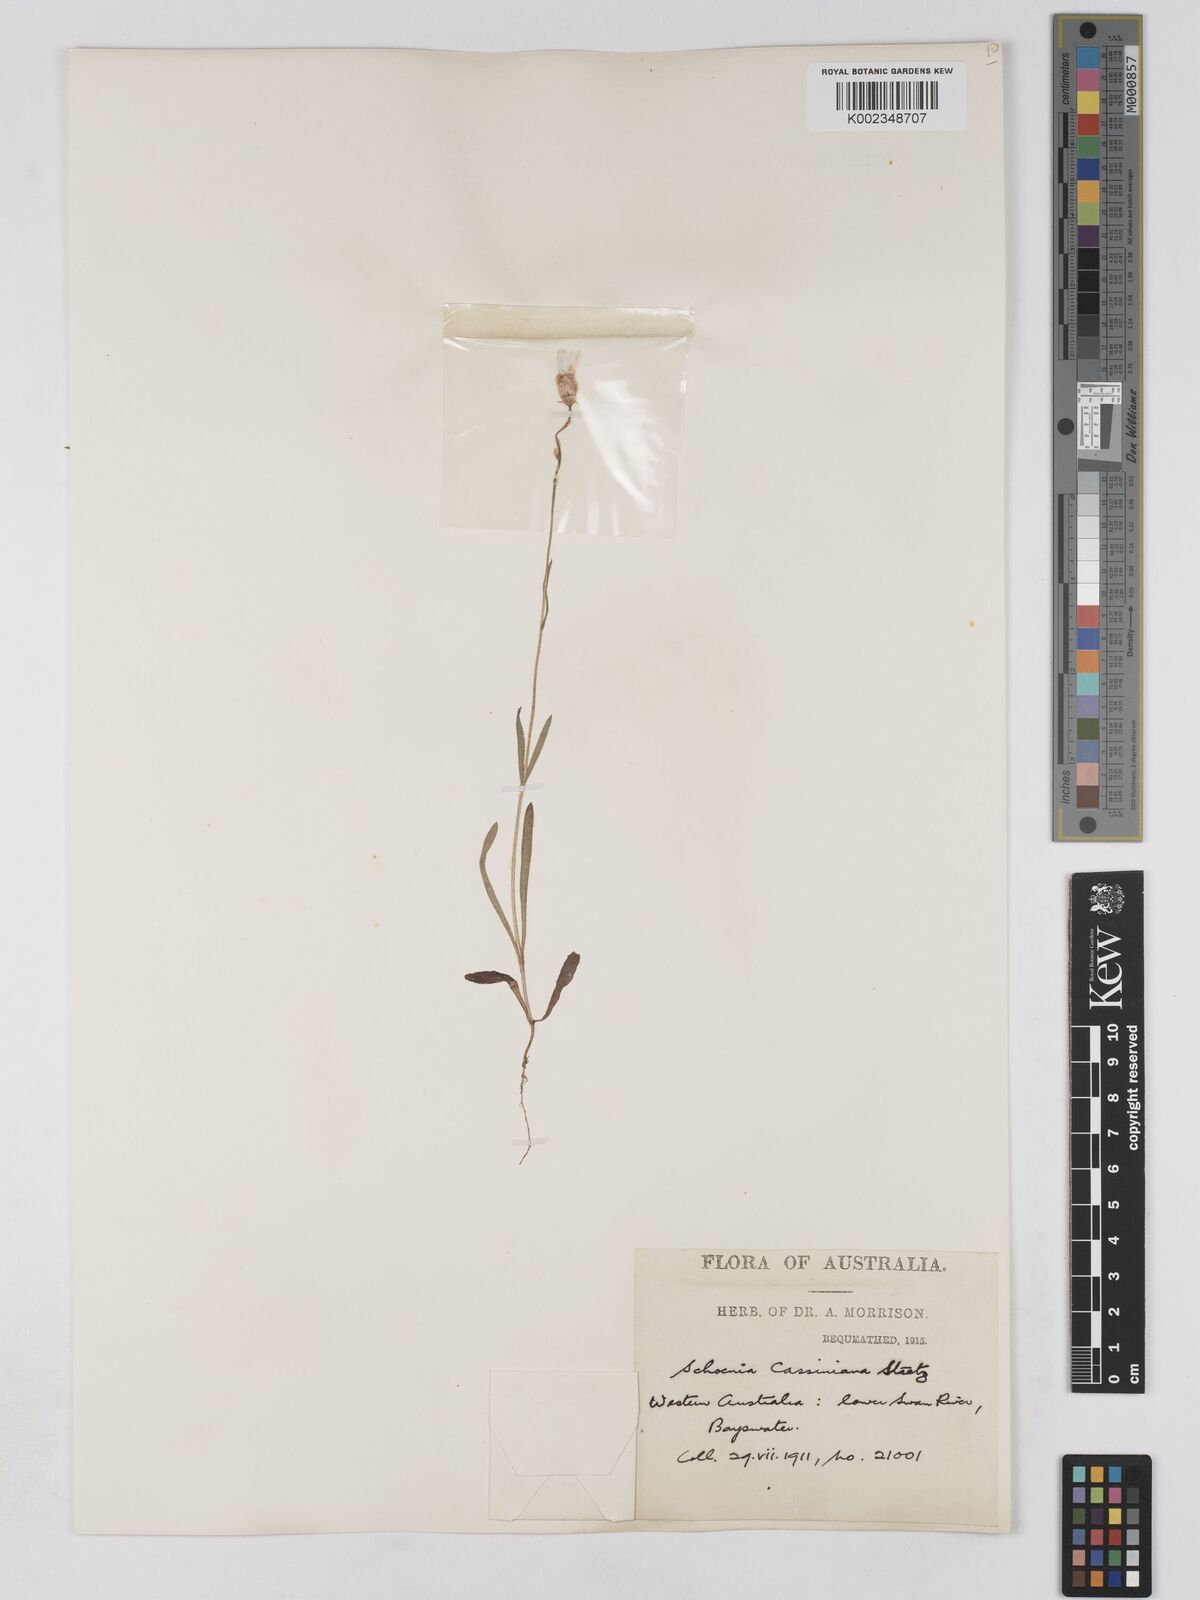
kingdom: Plantae
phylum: Tracheophyta
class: Magnoliopsida
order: Asterales
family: Asteraceae
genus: Schoenia
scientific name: Schoenia cassiniana
